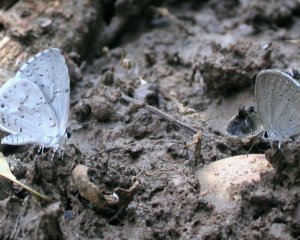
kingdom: Animalia
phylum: Arthropoda
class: Insecta
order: Lepidoptera
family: Lycaenidae
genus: Cyaniris
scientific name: Cyaniris neglecta
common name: Summer Azure
